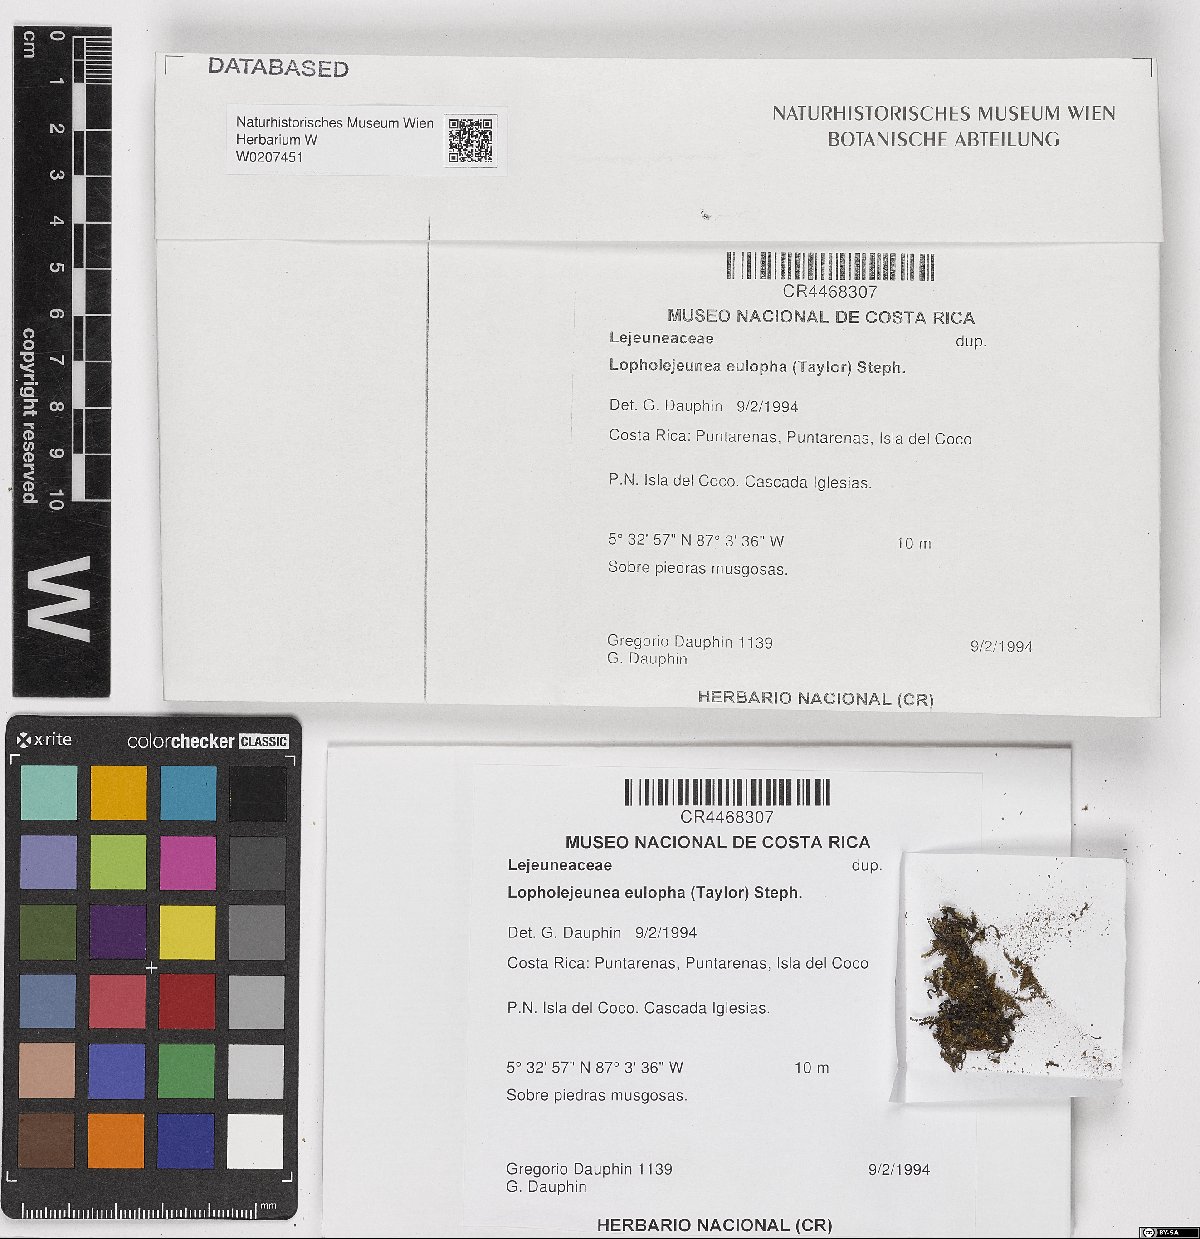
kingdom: Plantae
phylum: Marchantiophyta
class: Jungermanniopsida
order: Porellales
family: Lejeuneaceae
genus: Lopholejeunea
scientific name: Lopholejeunea eulopha
